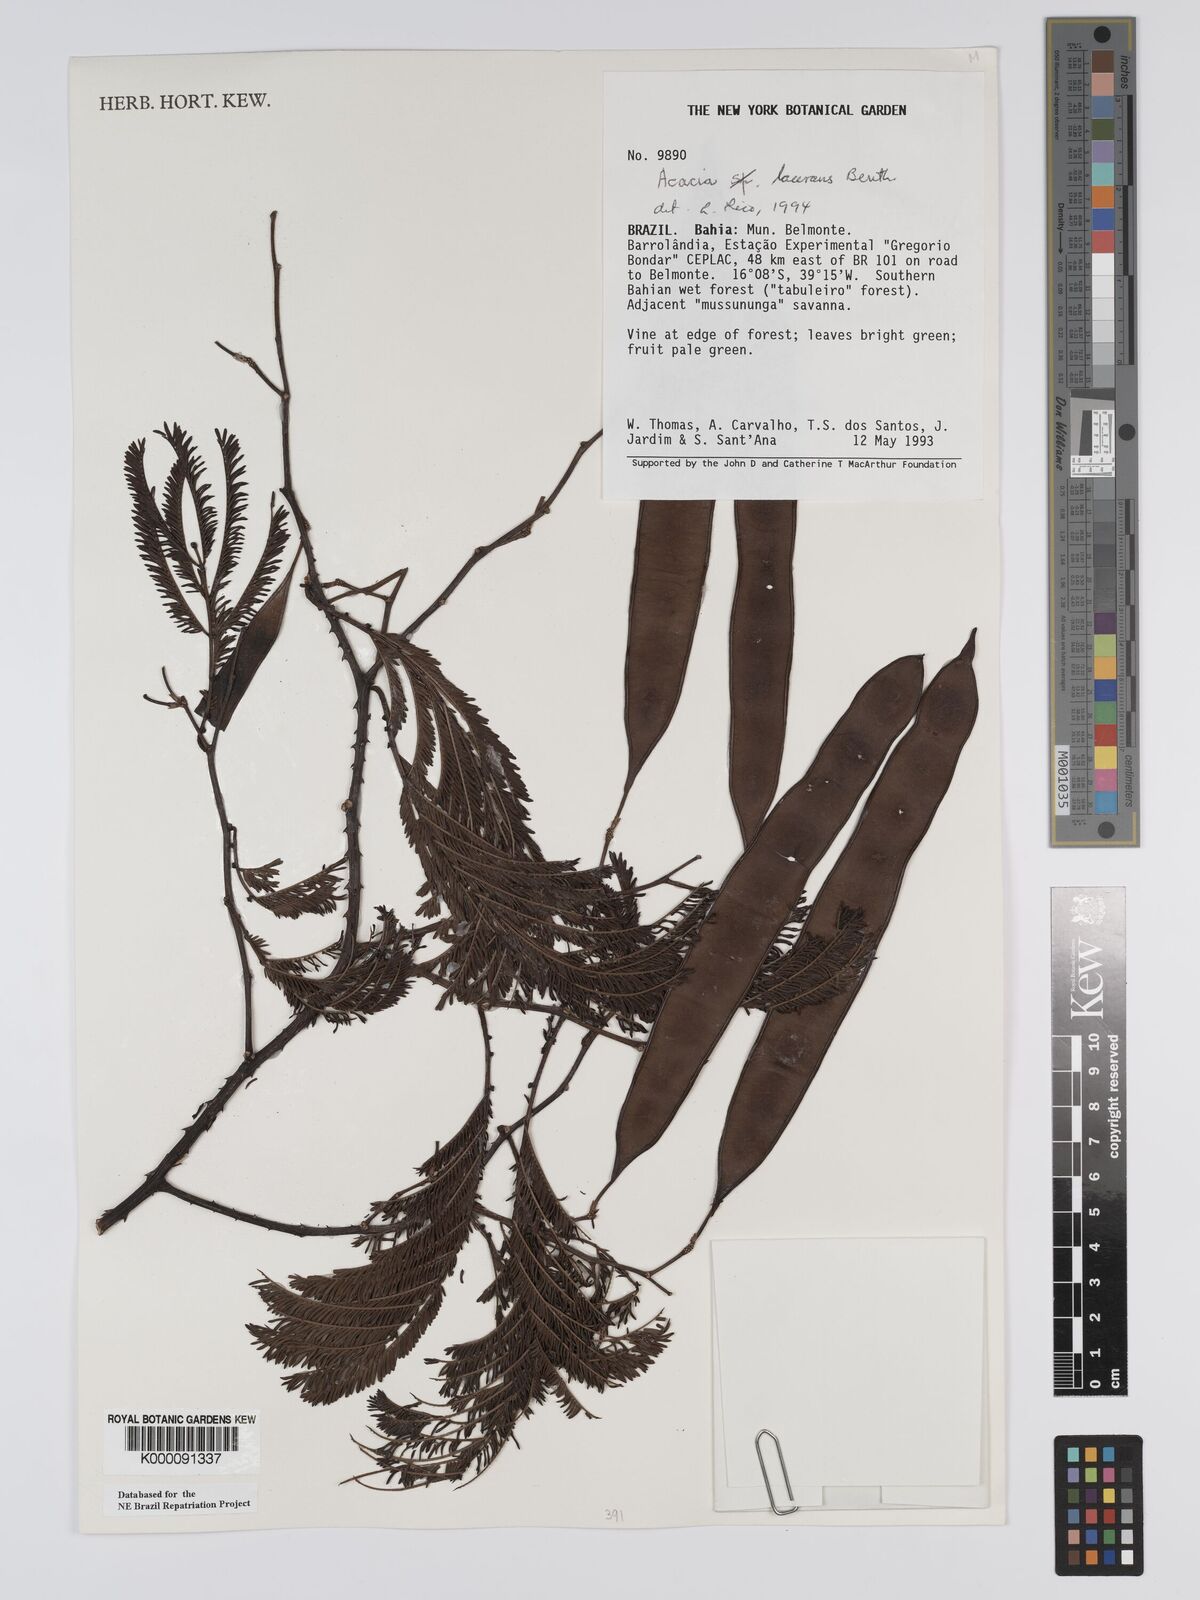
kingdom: Plantae
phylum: Tracheophyta
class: Magnoliopsida
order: Fabales
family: Fabaceae
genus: Senegalia
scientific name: Senegalia lacerans
